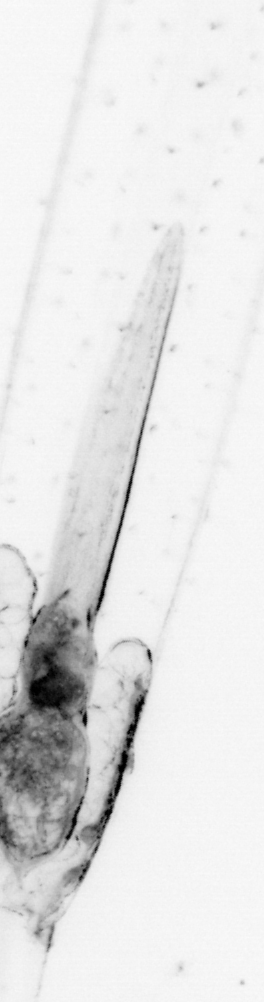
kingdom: Animalia
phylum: Chaetognatha
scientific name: Chaetognatha
